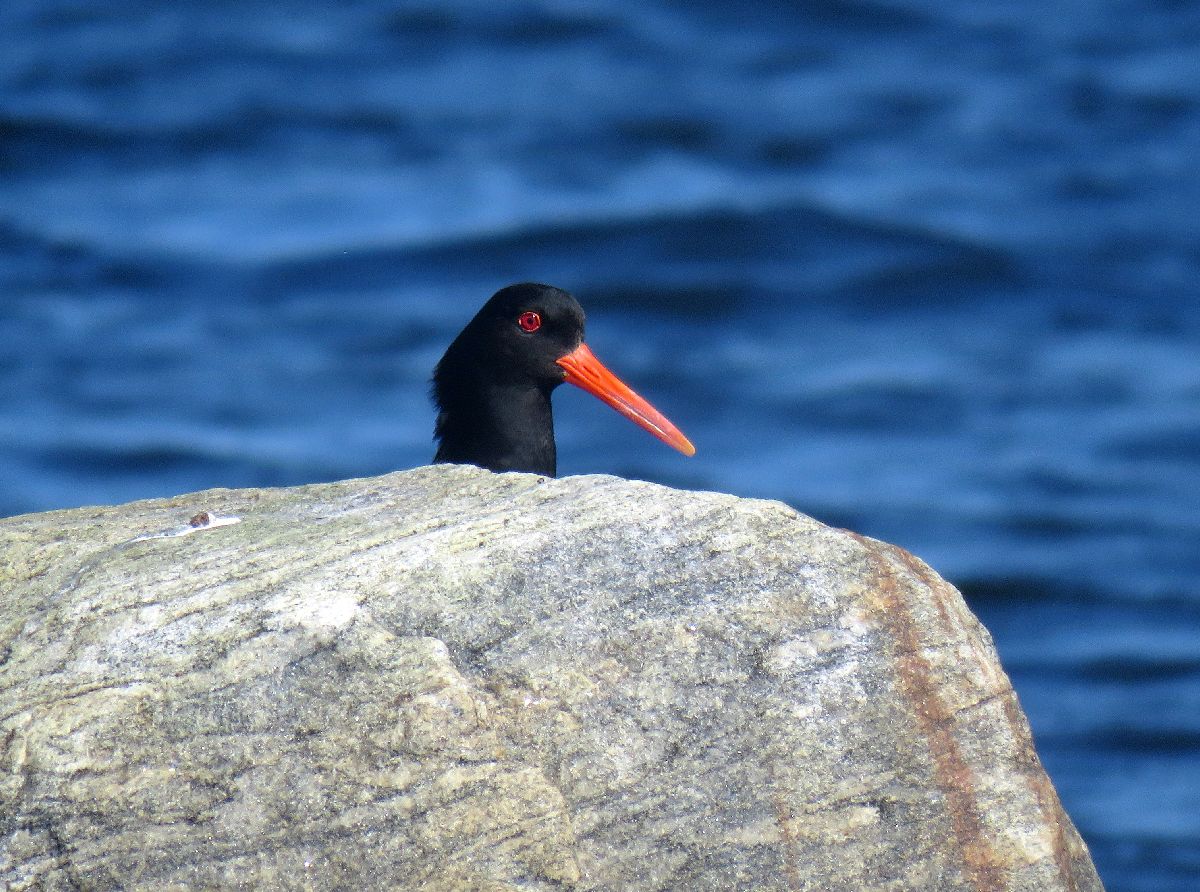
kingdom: Animalia
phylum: Chordata
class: Aves
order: Charadriiformes
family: Haematopodidae
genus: Haematopus
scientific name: Haematopus ostralegus
